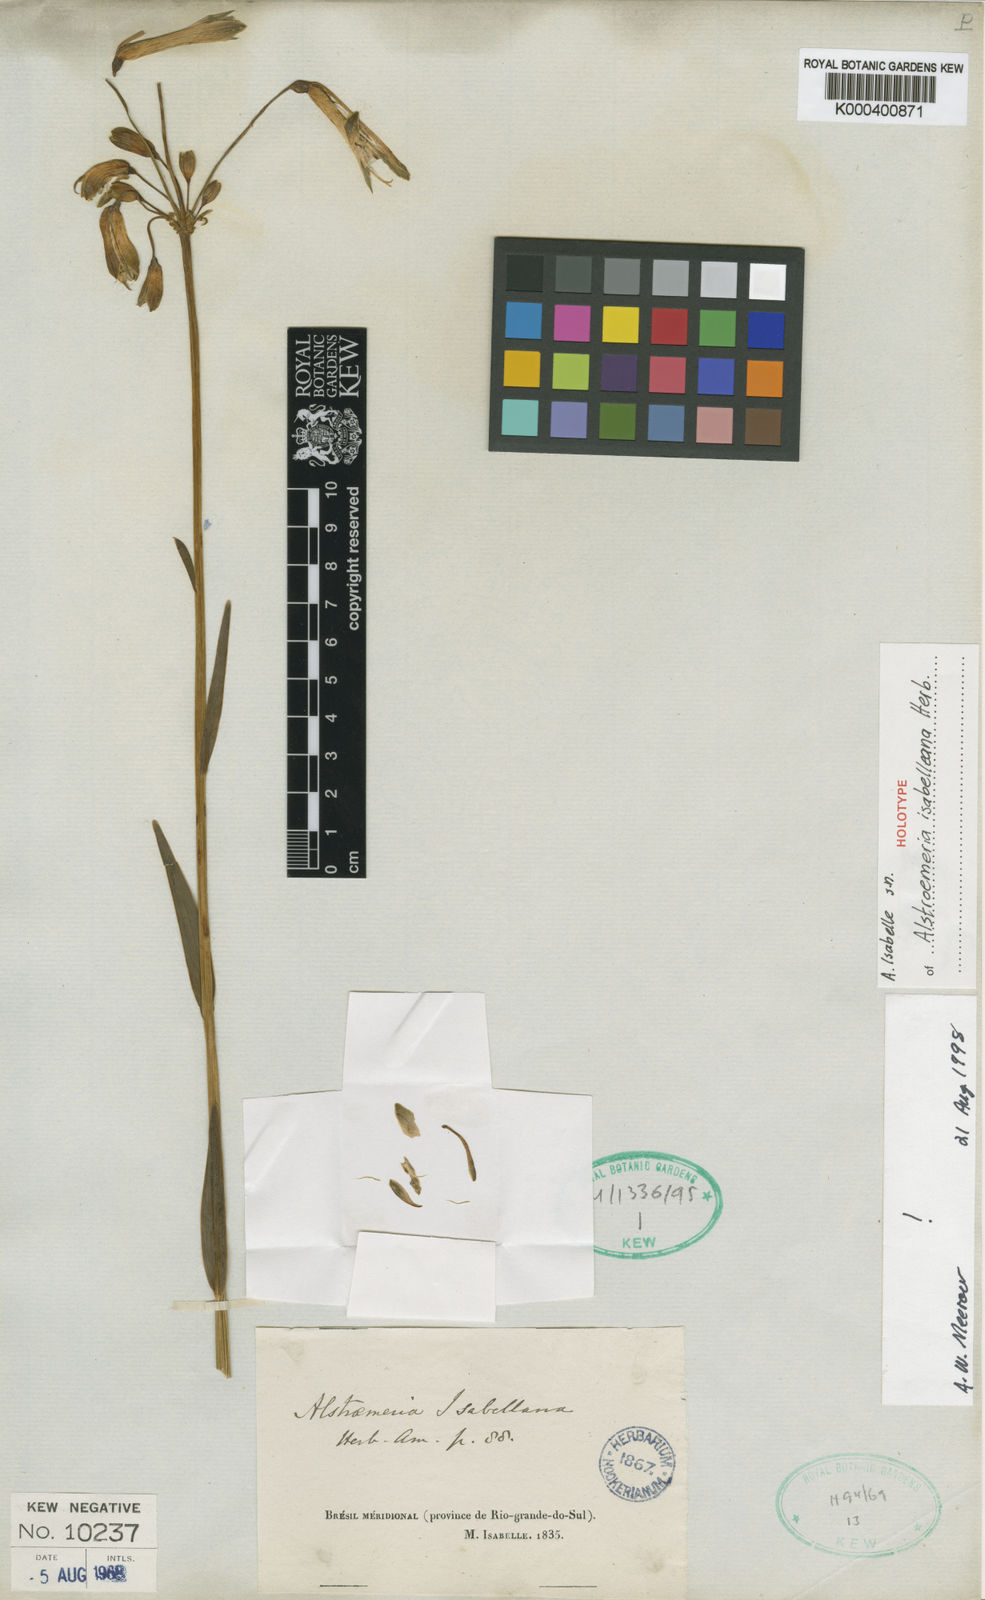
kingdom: Plantae
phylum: Tracheophyta
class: Liliopsida
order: Liliales
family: Alstroemeriaceae
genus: Alstroemeria
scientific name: Alstroemeria
